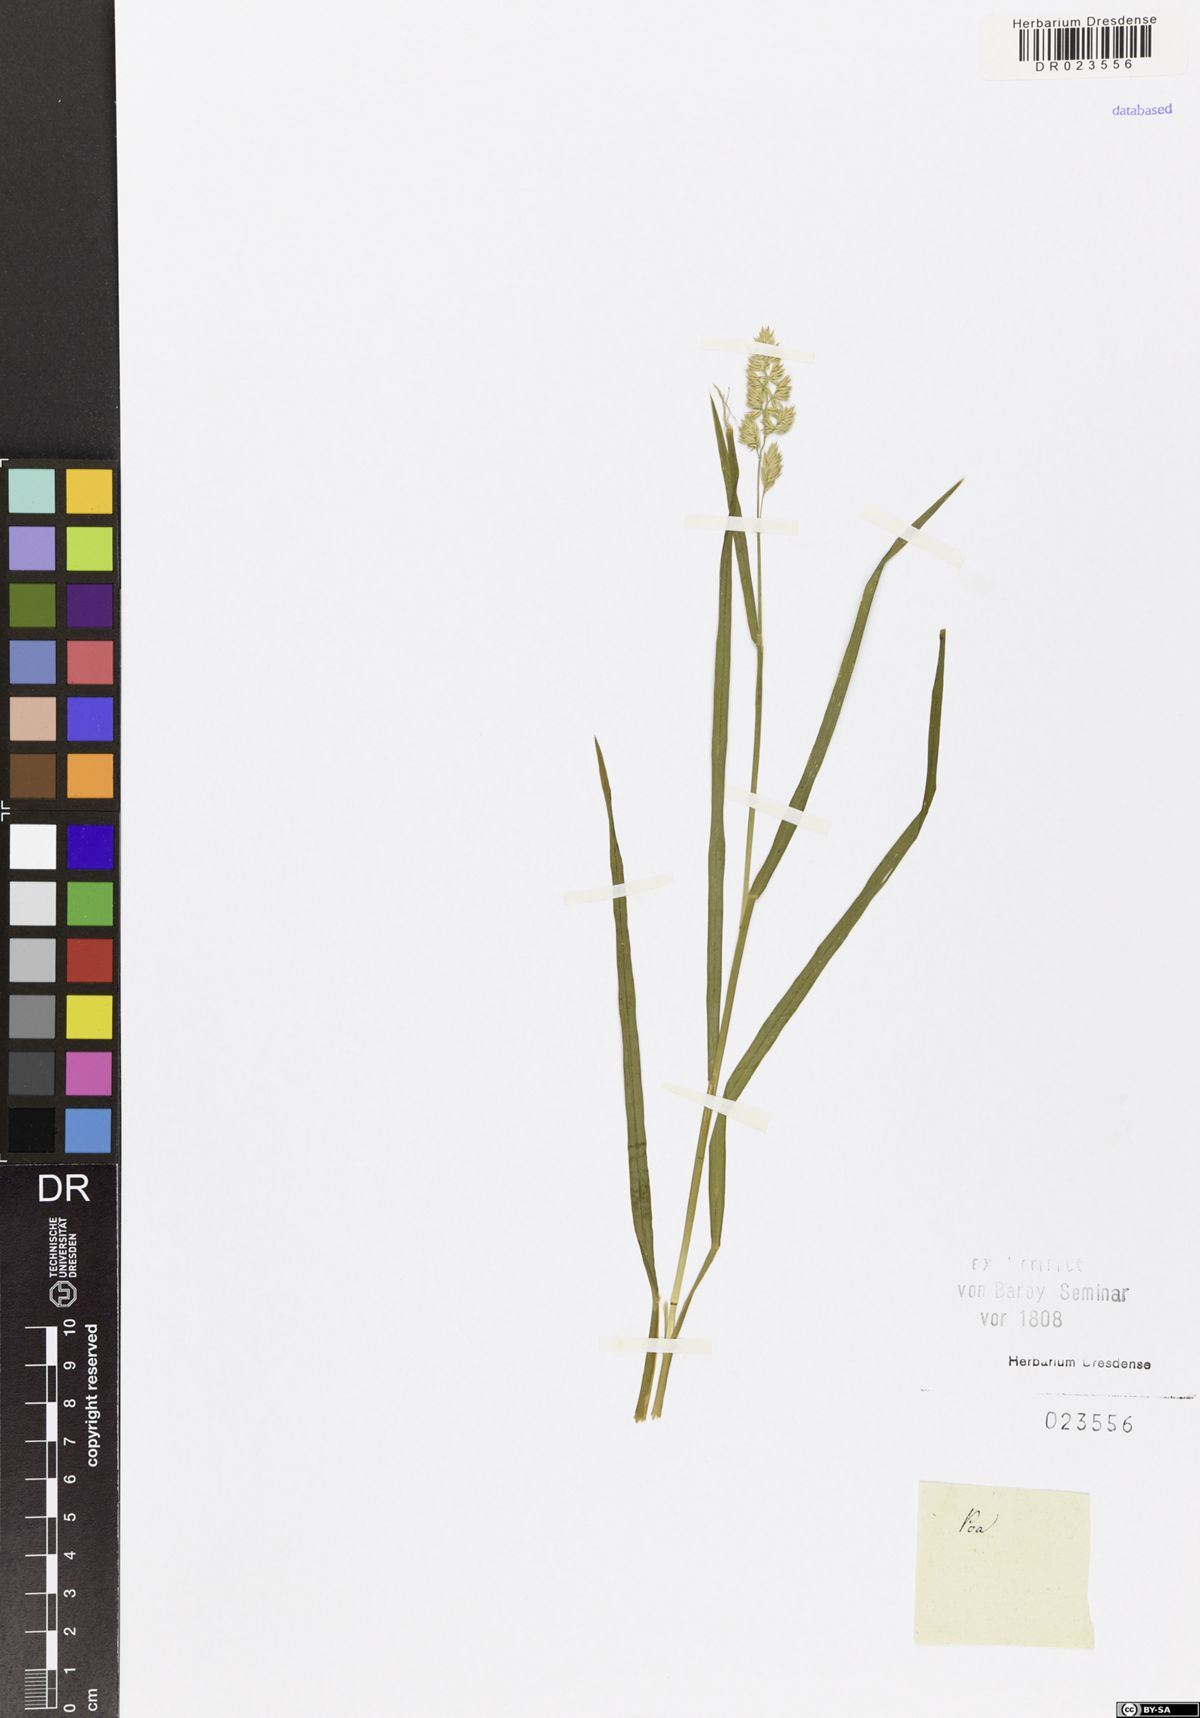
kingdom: Plantae
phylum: Tracheophyta
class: Liliopsida
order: Poales
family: Poaceae
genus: Poa
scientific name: Poa
